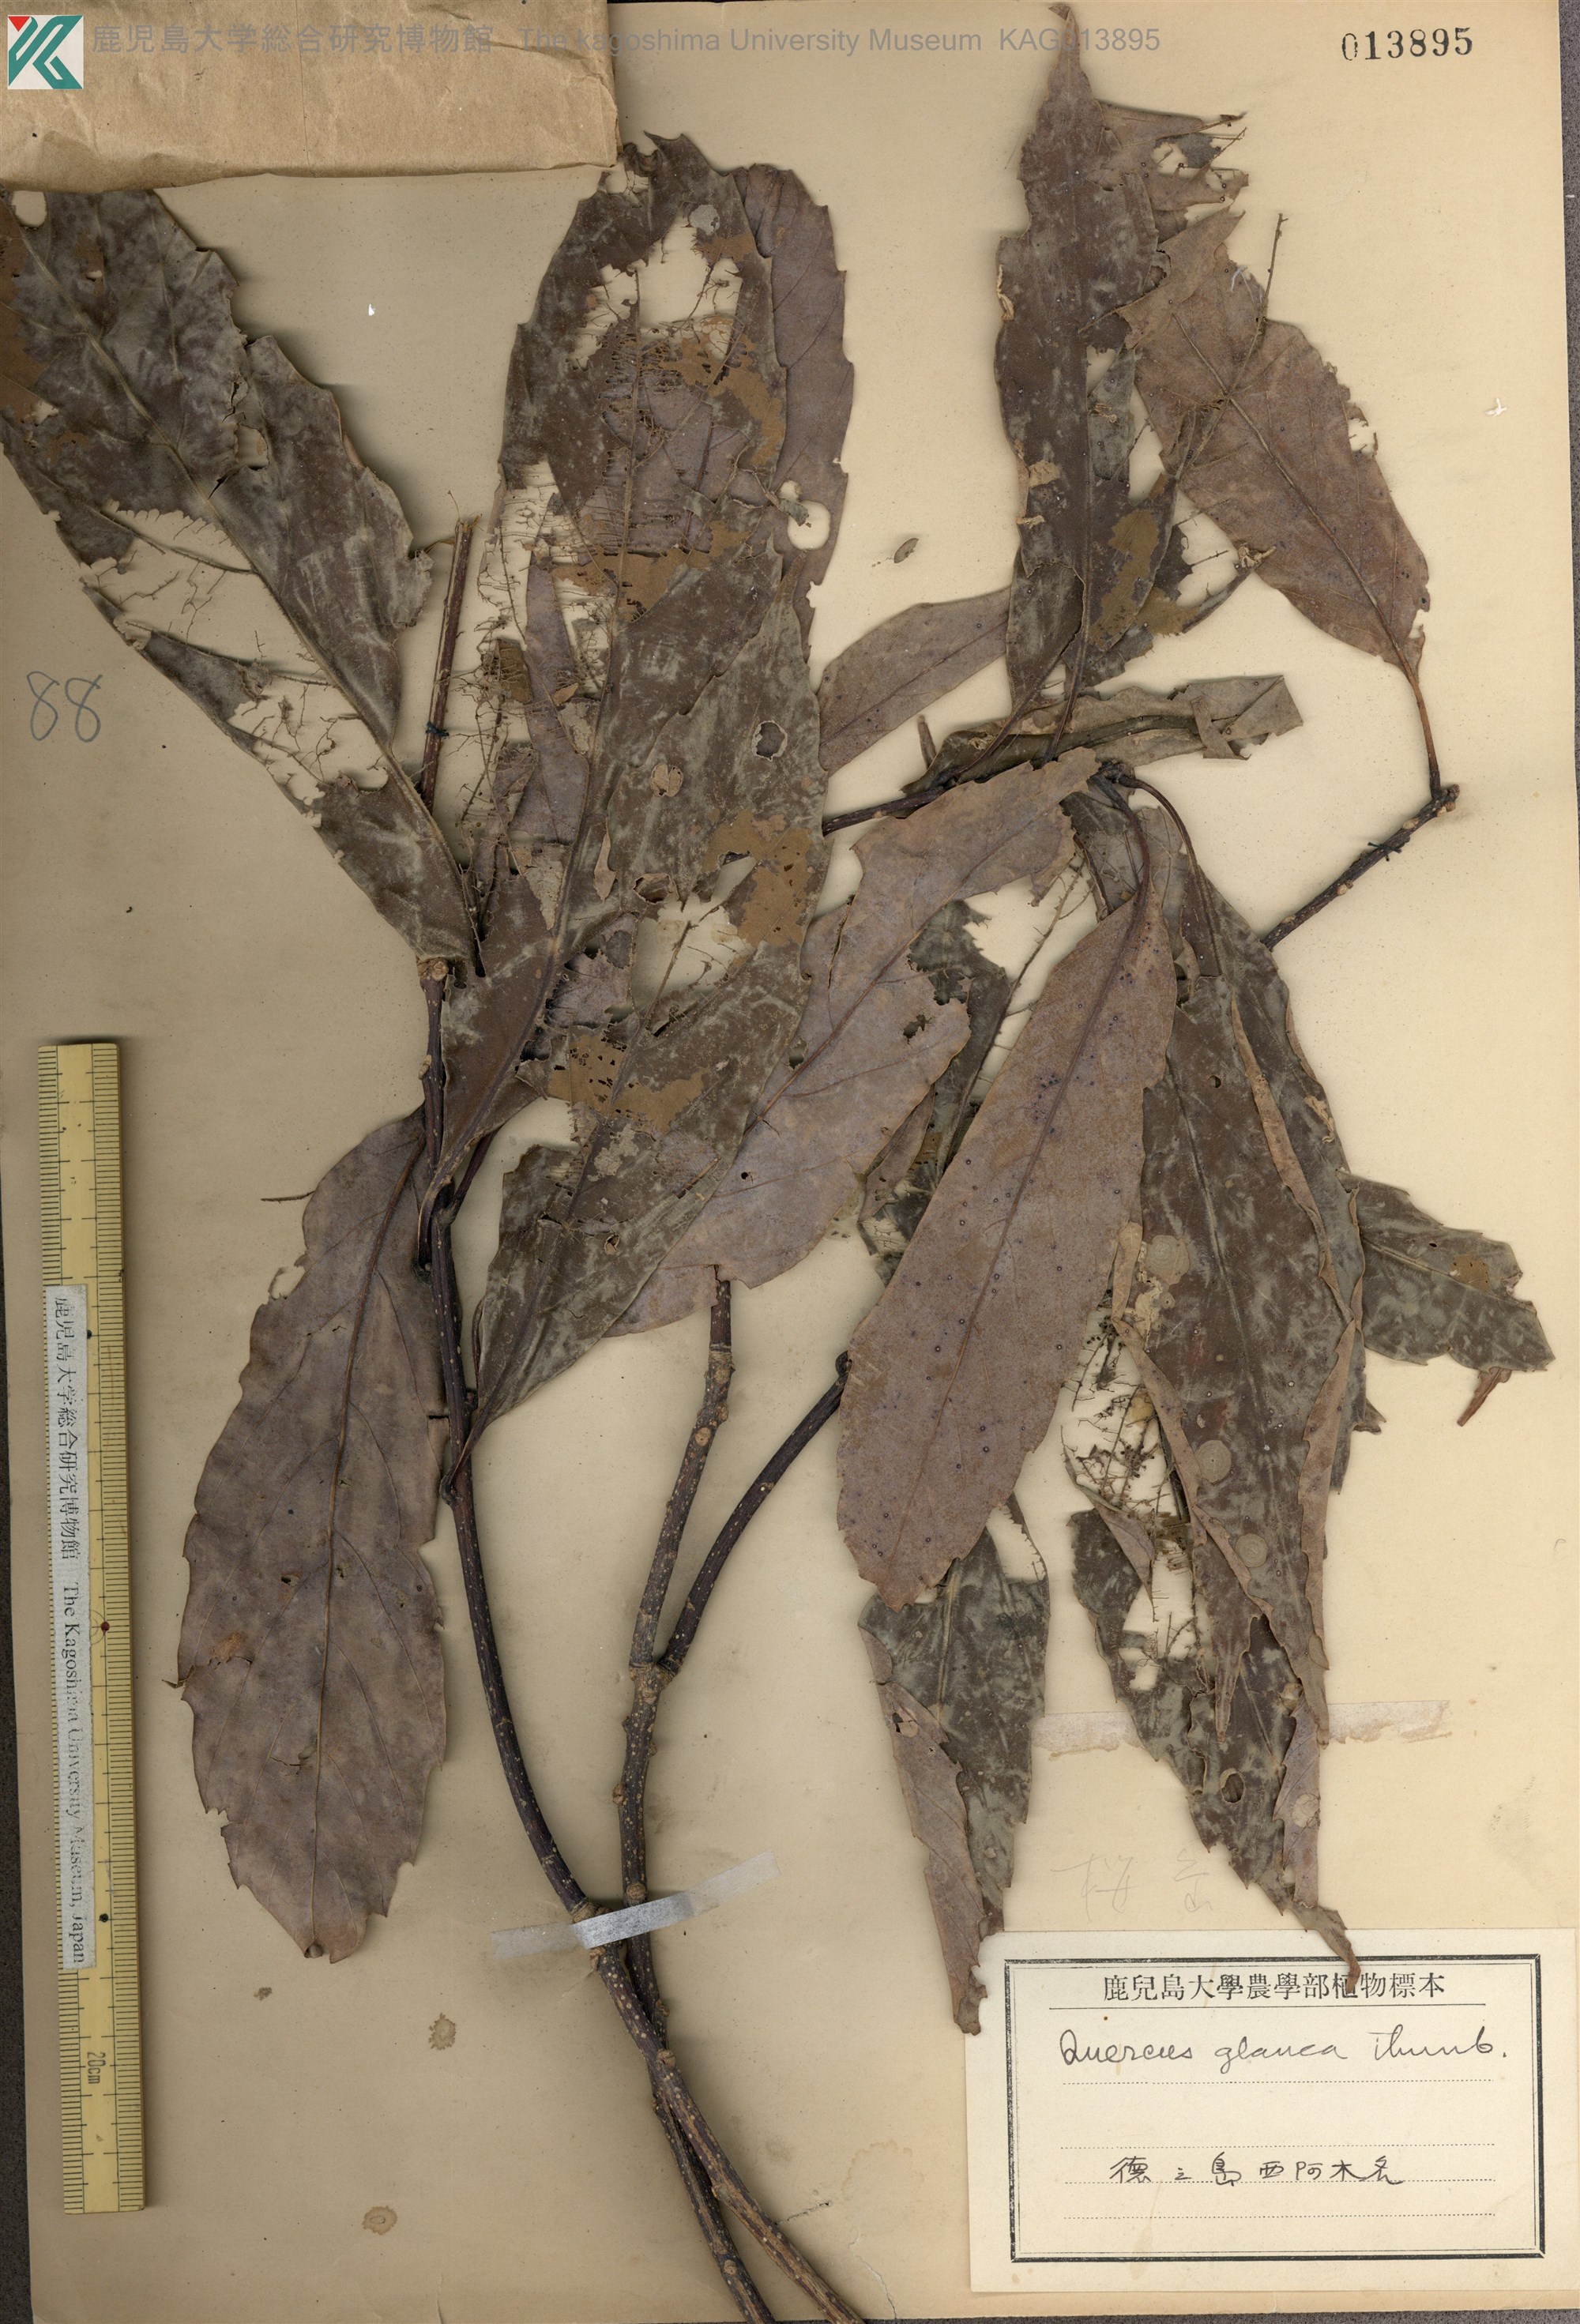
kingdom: Plantae
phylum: Tracheophyta
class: Magnoliopsida
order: Fagales
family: Fagaceae
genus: Quercus
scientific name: Quercus glauca
